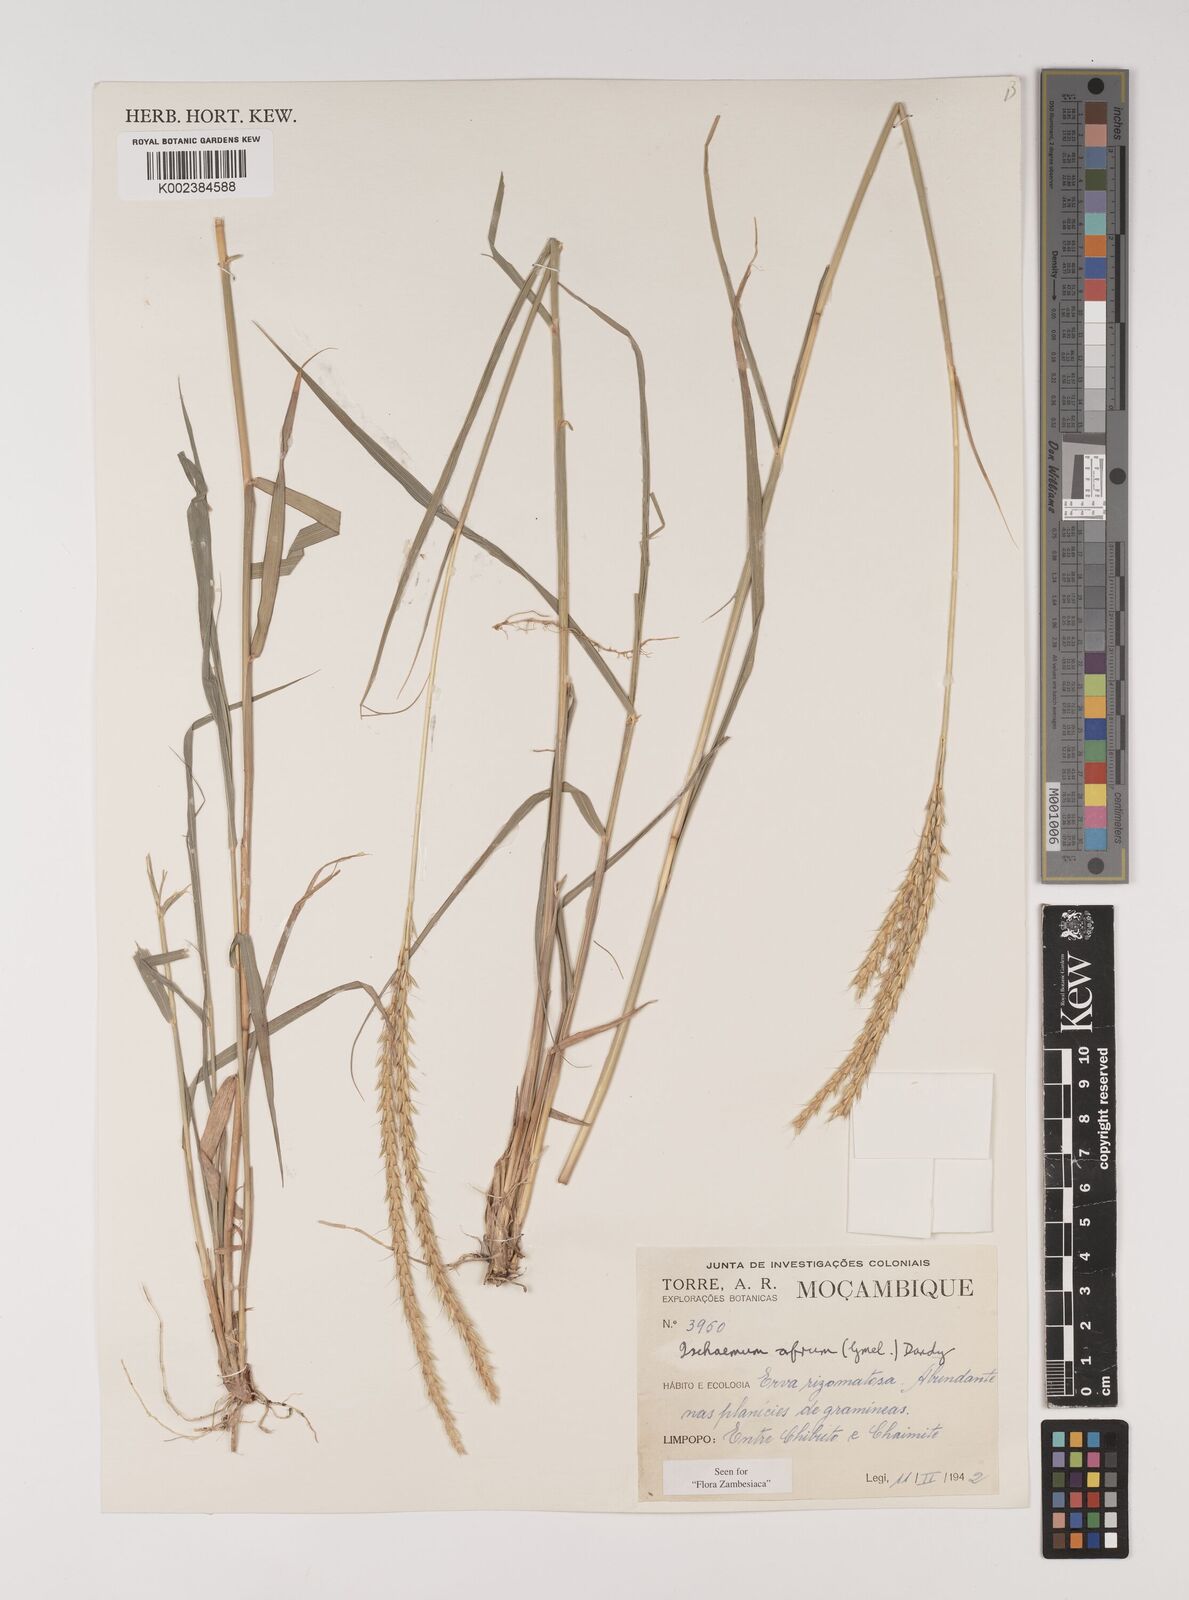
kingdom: Plantae
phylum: Tracheophyta
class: Liliopsida
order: Poales
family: Poaceae
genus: Ischaemum
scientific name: Ischaemum afrum
